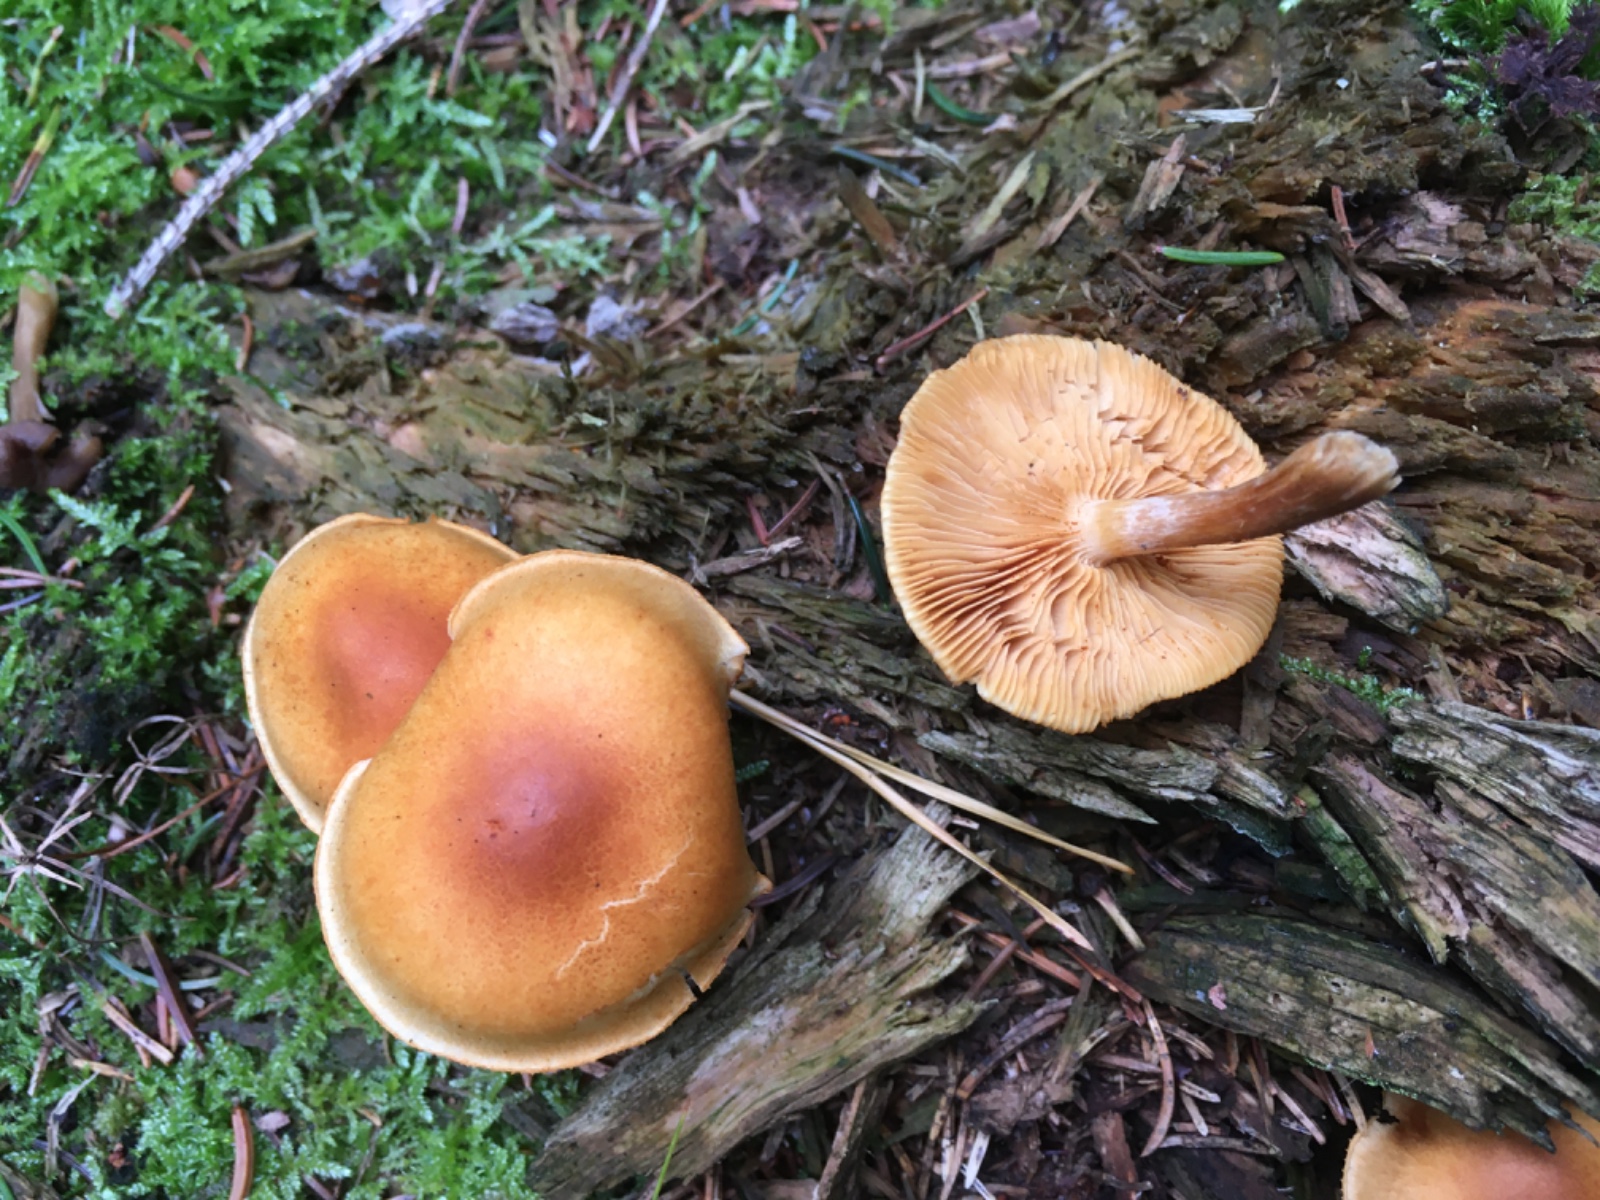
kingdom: Fungi
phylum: Basidiomycota
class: Agaricomycetes
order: Agaricales
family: Hymenogastraceae
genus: Gymnopilus
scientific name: Gymnopilus penetrans
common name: plettet flammehat
